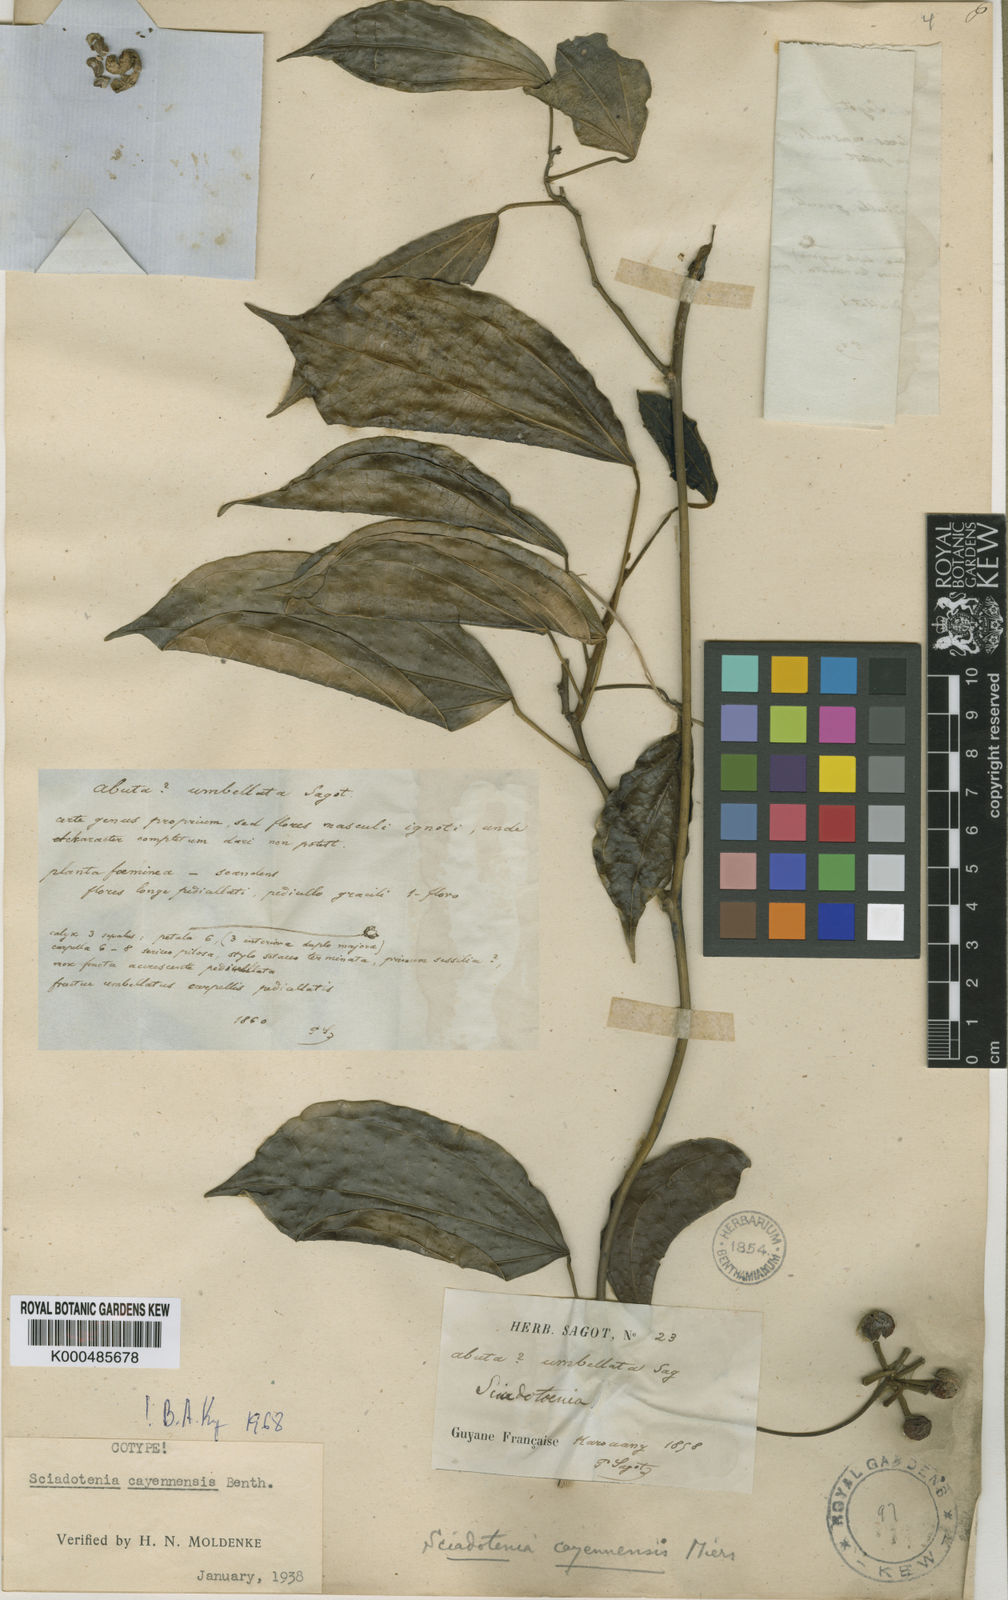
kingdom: Plantae
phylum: Tracheophyta
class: Magnoliopsida
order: Ranunculales
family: Menispermaceae
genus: Sciadotenia
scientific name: Sciadotenia cayennensis
